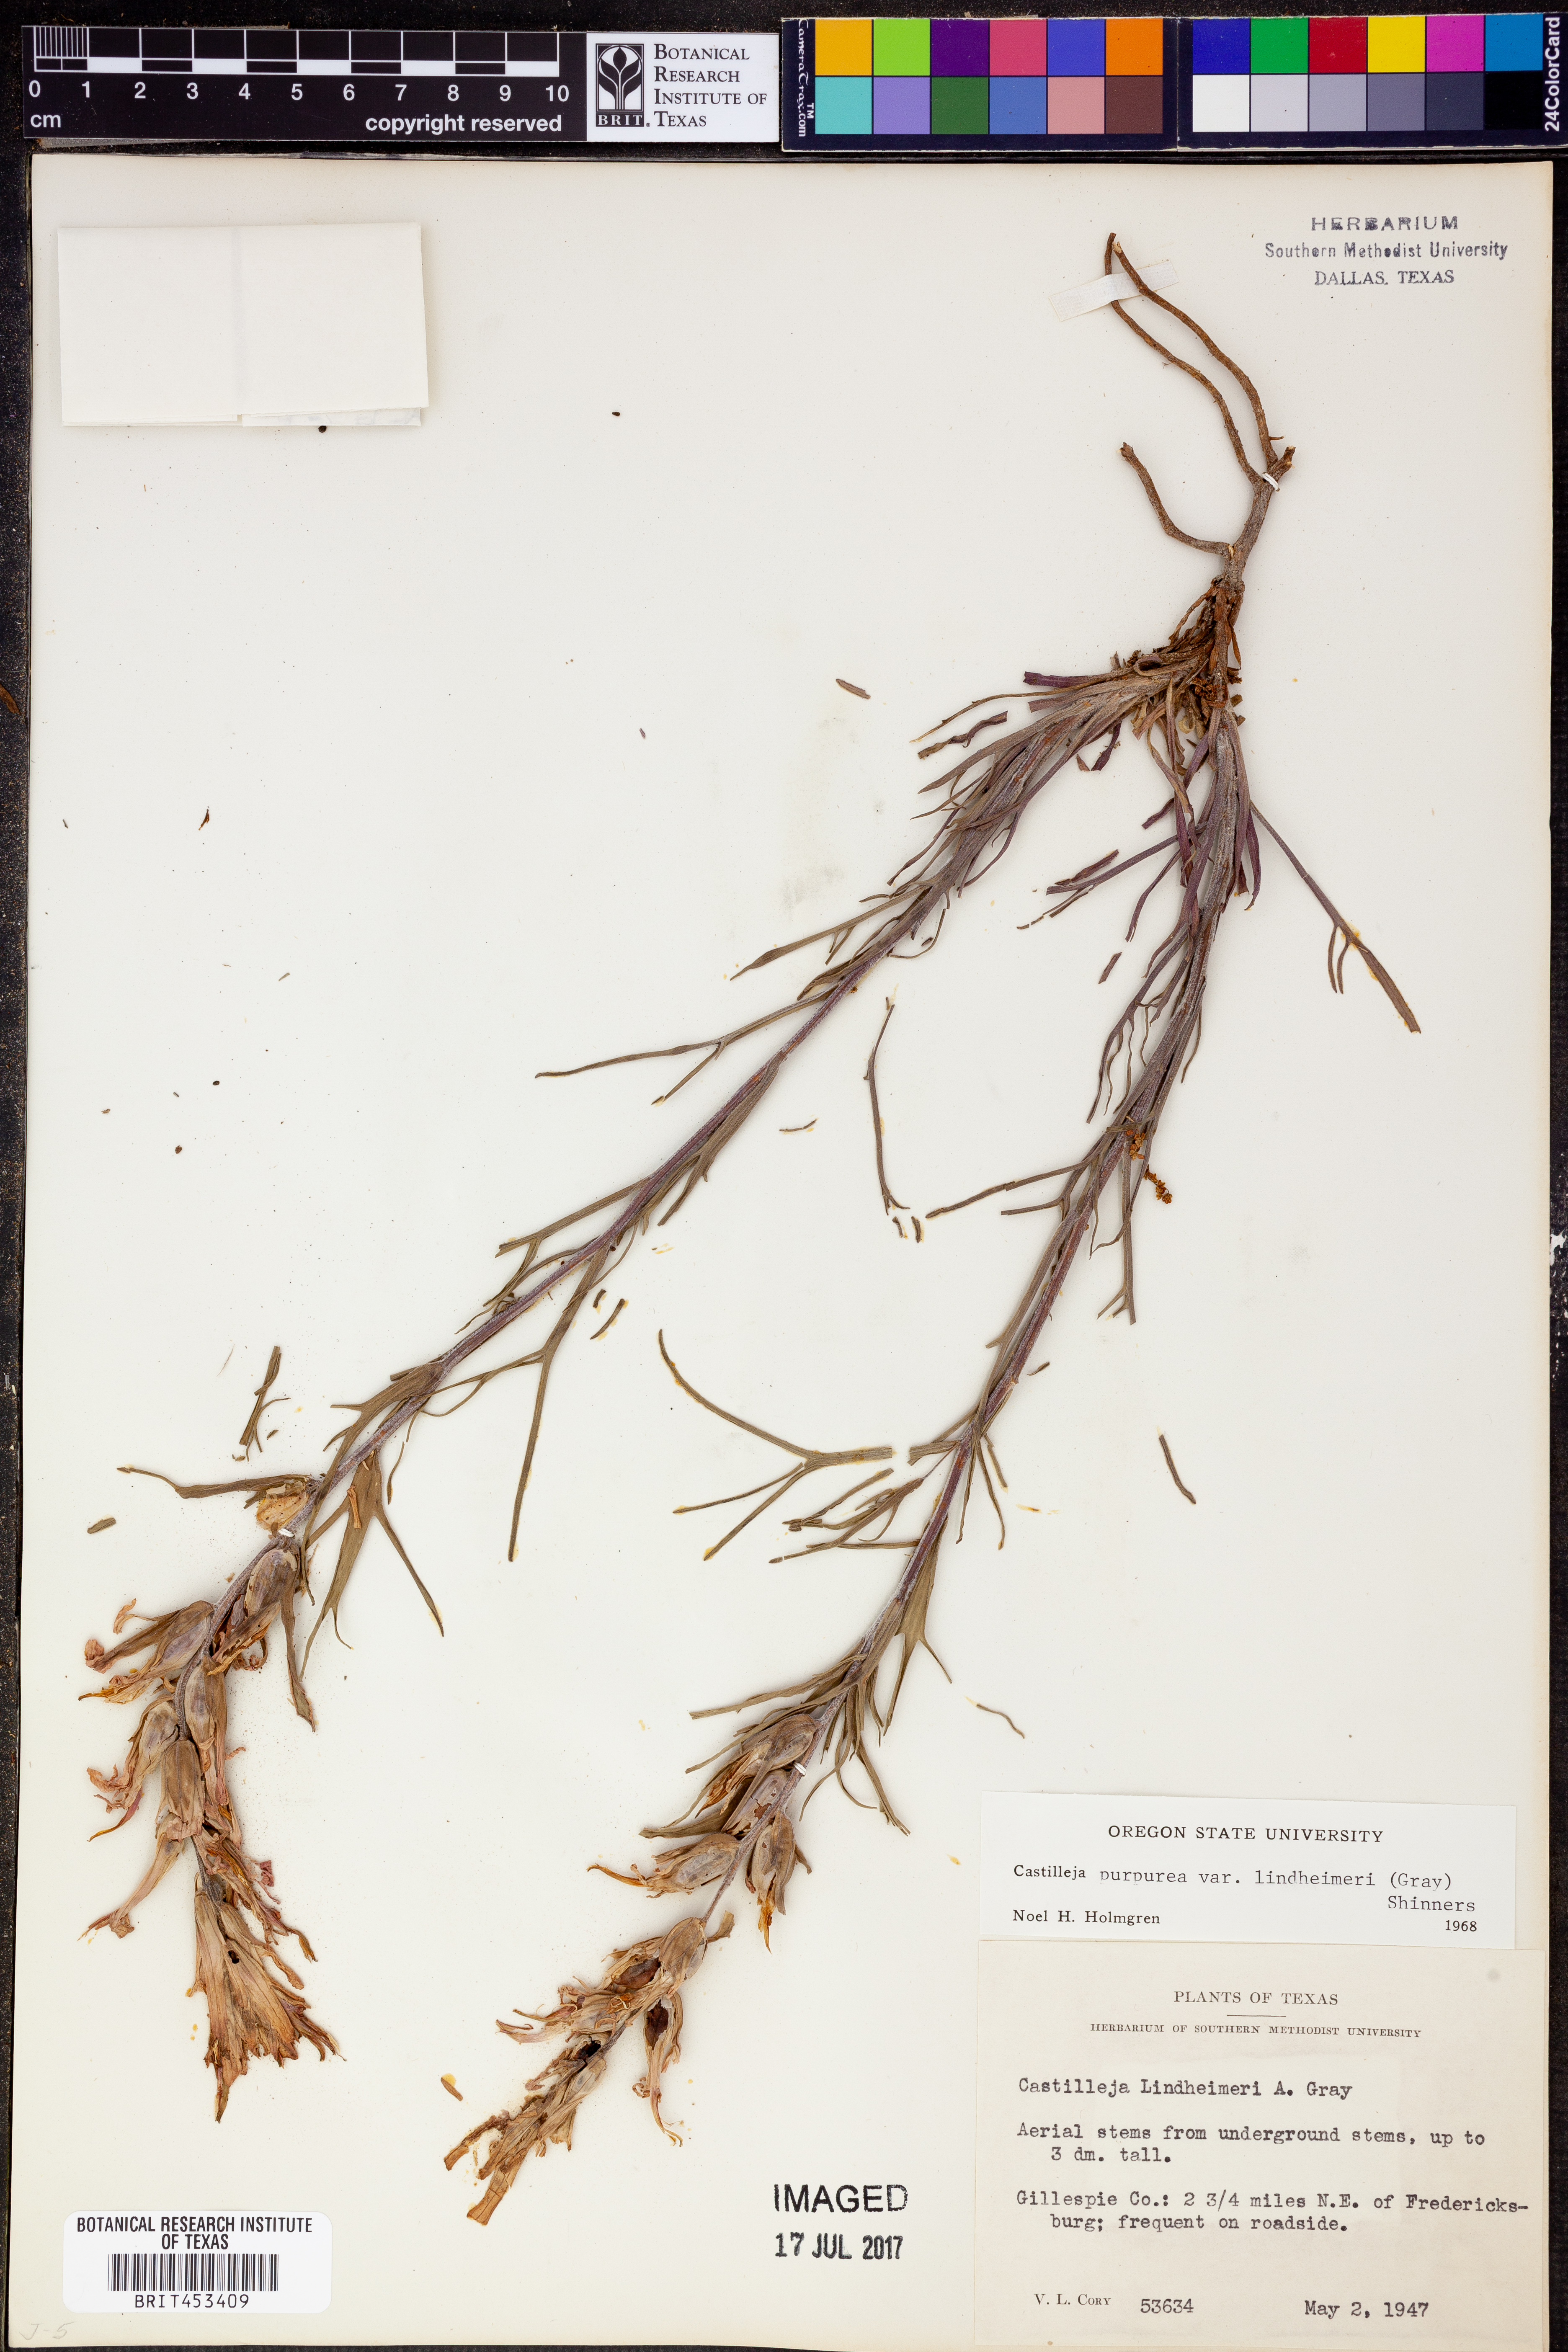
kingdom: Plantae
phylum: Tracheophyta
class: Magnoliopsida
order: Lamiales
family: Orobanchaceae
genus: Castilleja
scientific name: Castilleja lindheimeri
